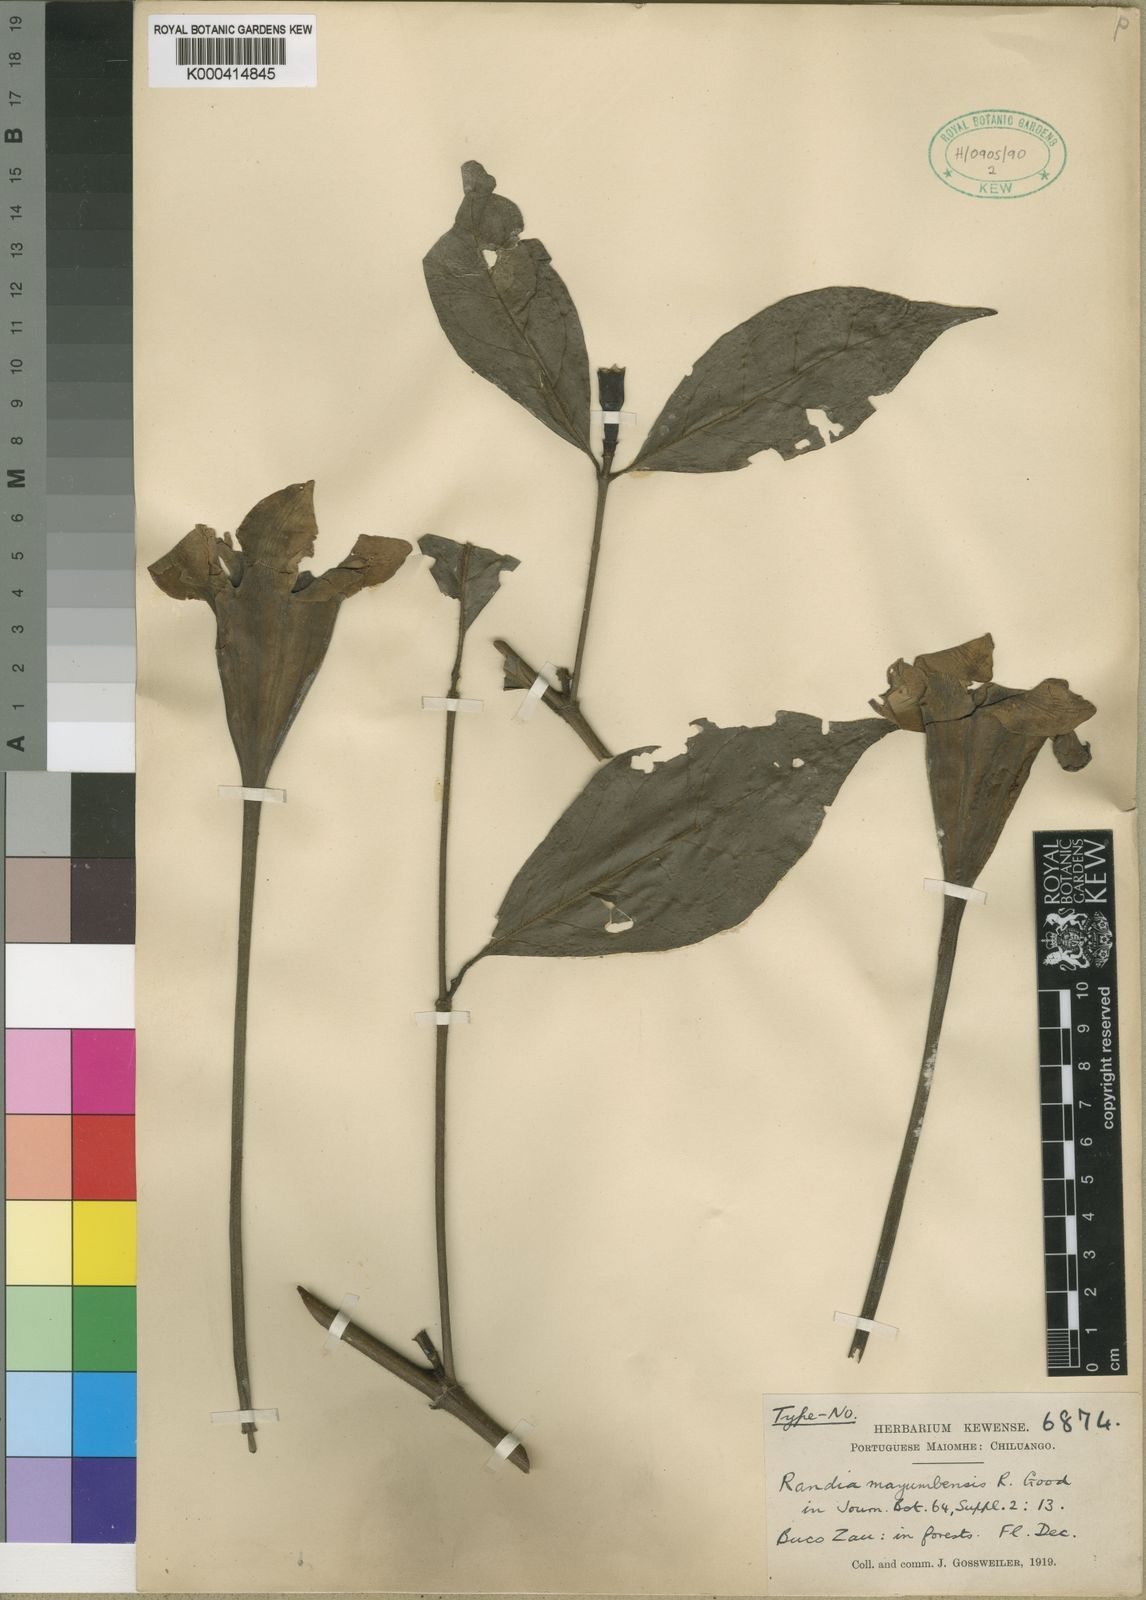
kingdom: Plantae
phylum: Tracheophyta
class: Magnoliopsida
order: Gentianales
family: Rubiaceae
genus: Rothmannia
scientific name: Rothmannia mayumbensis
